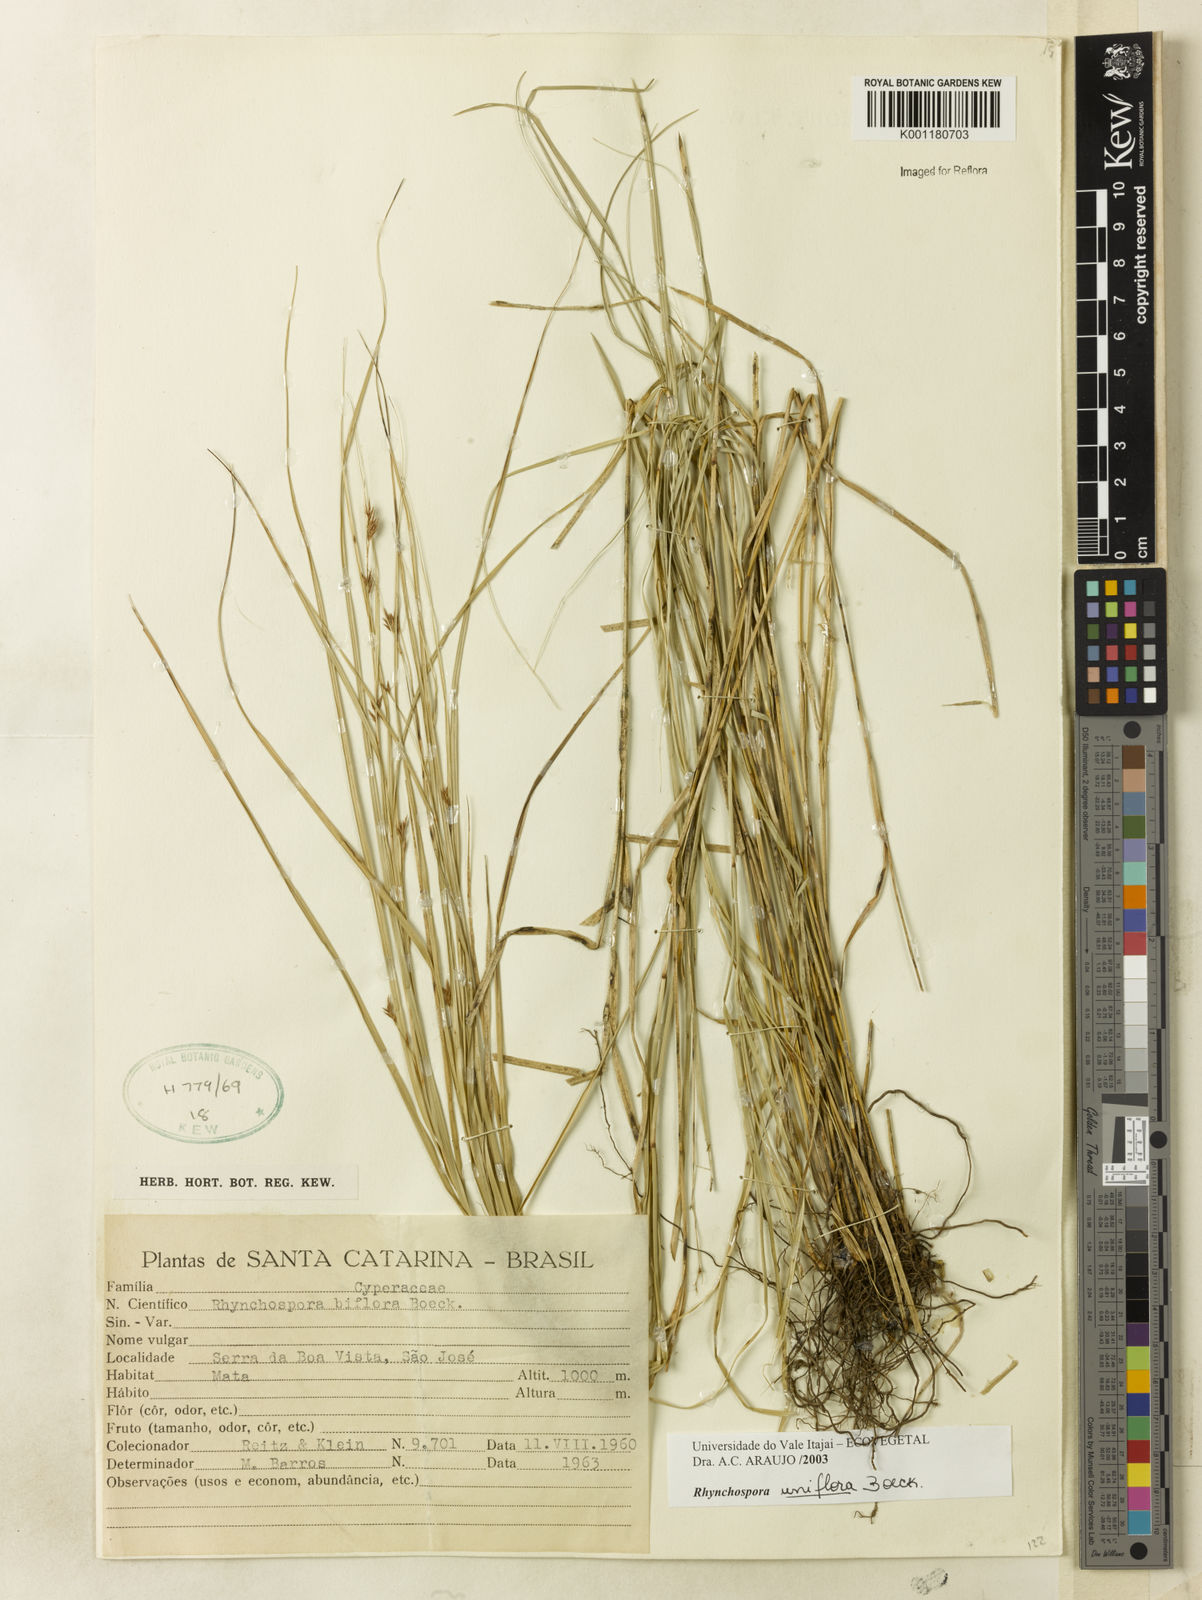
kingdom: Plantae
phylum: Tracheophyta
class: Liliopsida
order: Poales
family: Cyperaceae
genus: Rhynchospora
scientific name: Rhynchospora biflora
